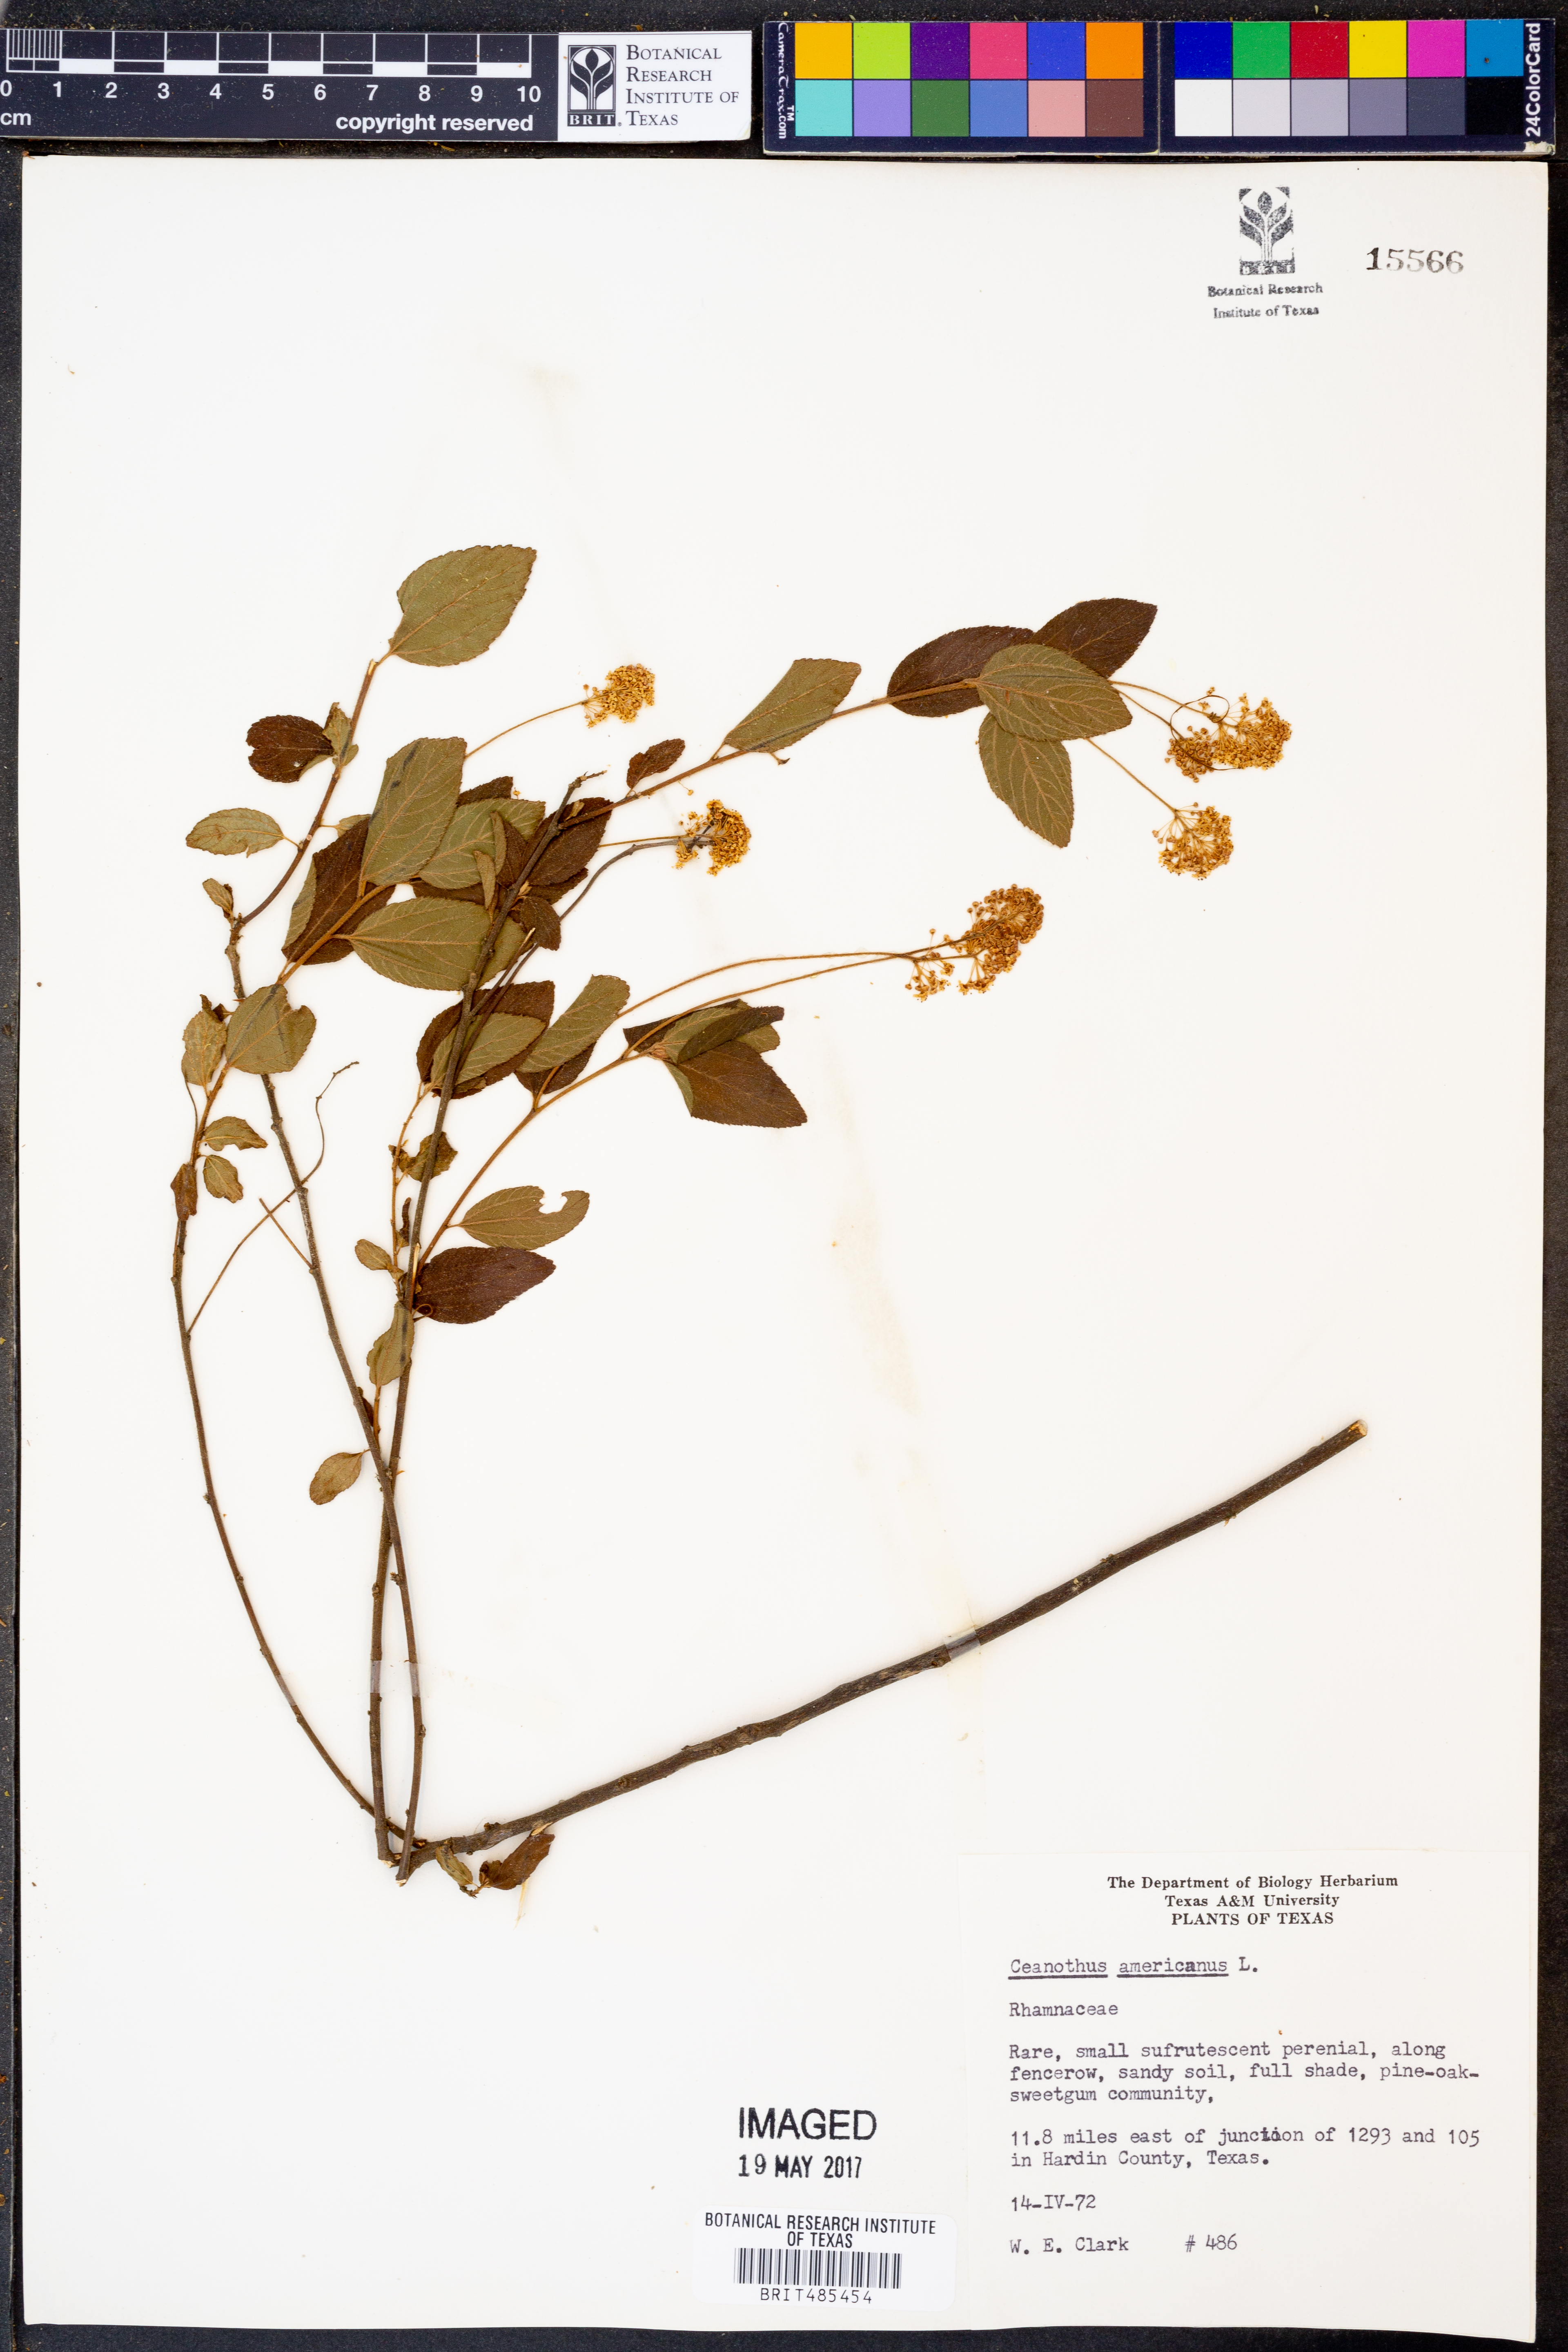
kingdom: Plantae
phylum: Tracheophyta
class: Magnoliopsida
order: Rosales
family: Rhamnaceae
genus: Ceanothus
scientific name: Ceanothus americanus
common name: Redroot
